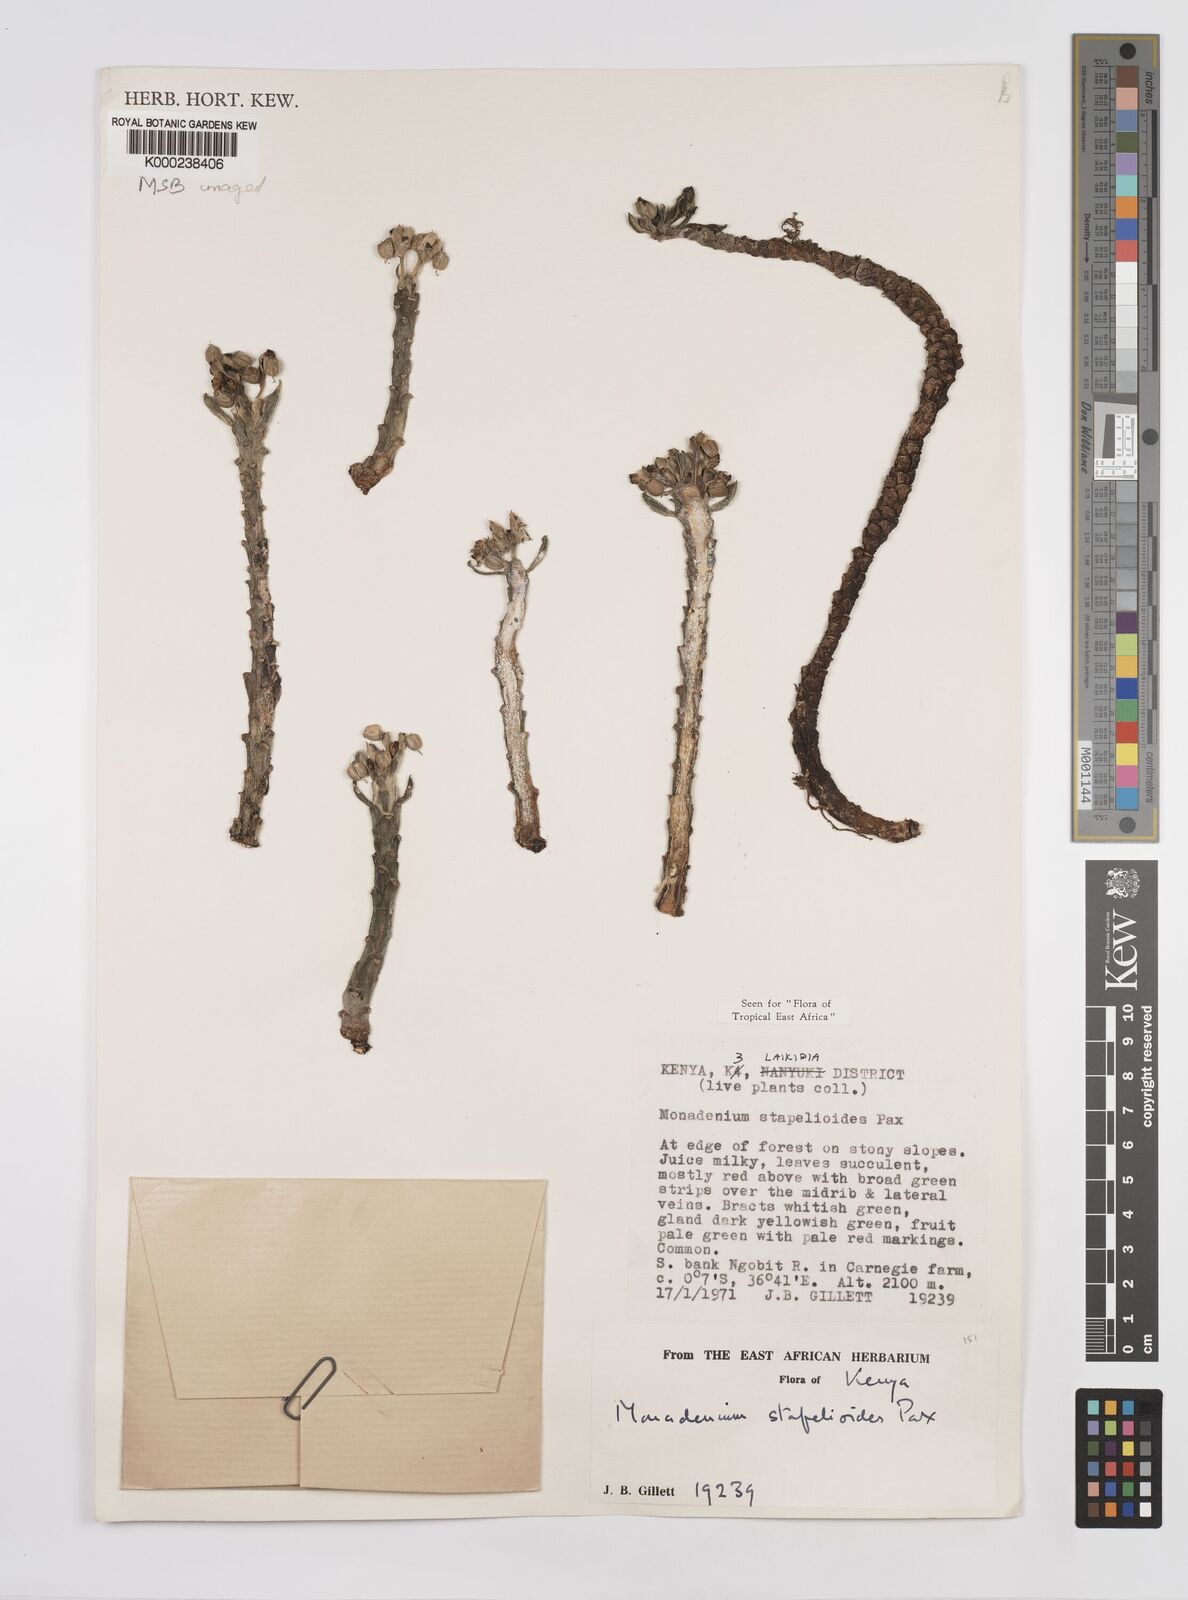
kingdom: Plantae
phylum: Tracheophyta
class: Magnoliopsida
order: Malpighiales
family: Euphorbiaceae
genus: Euphorbia
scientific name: Euphorbia succulenta
